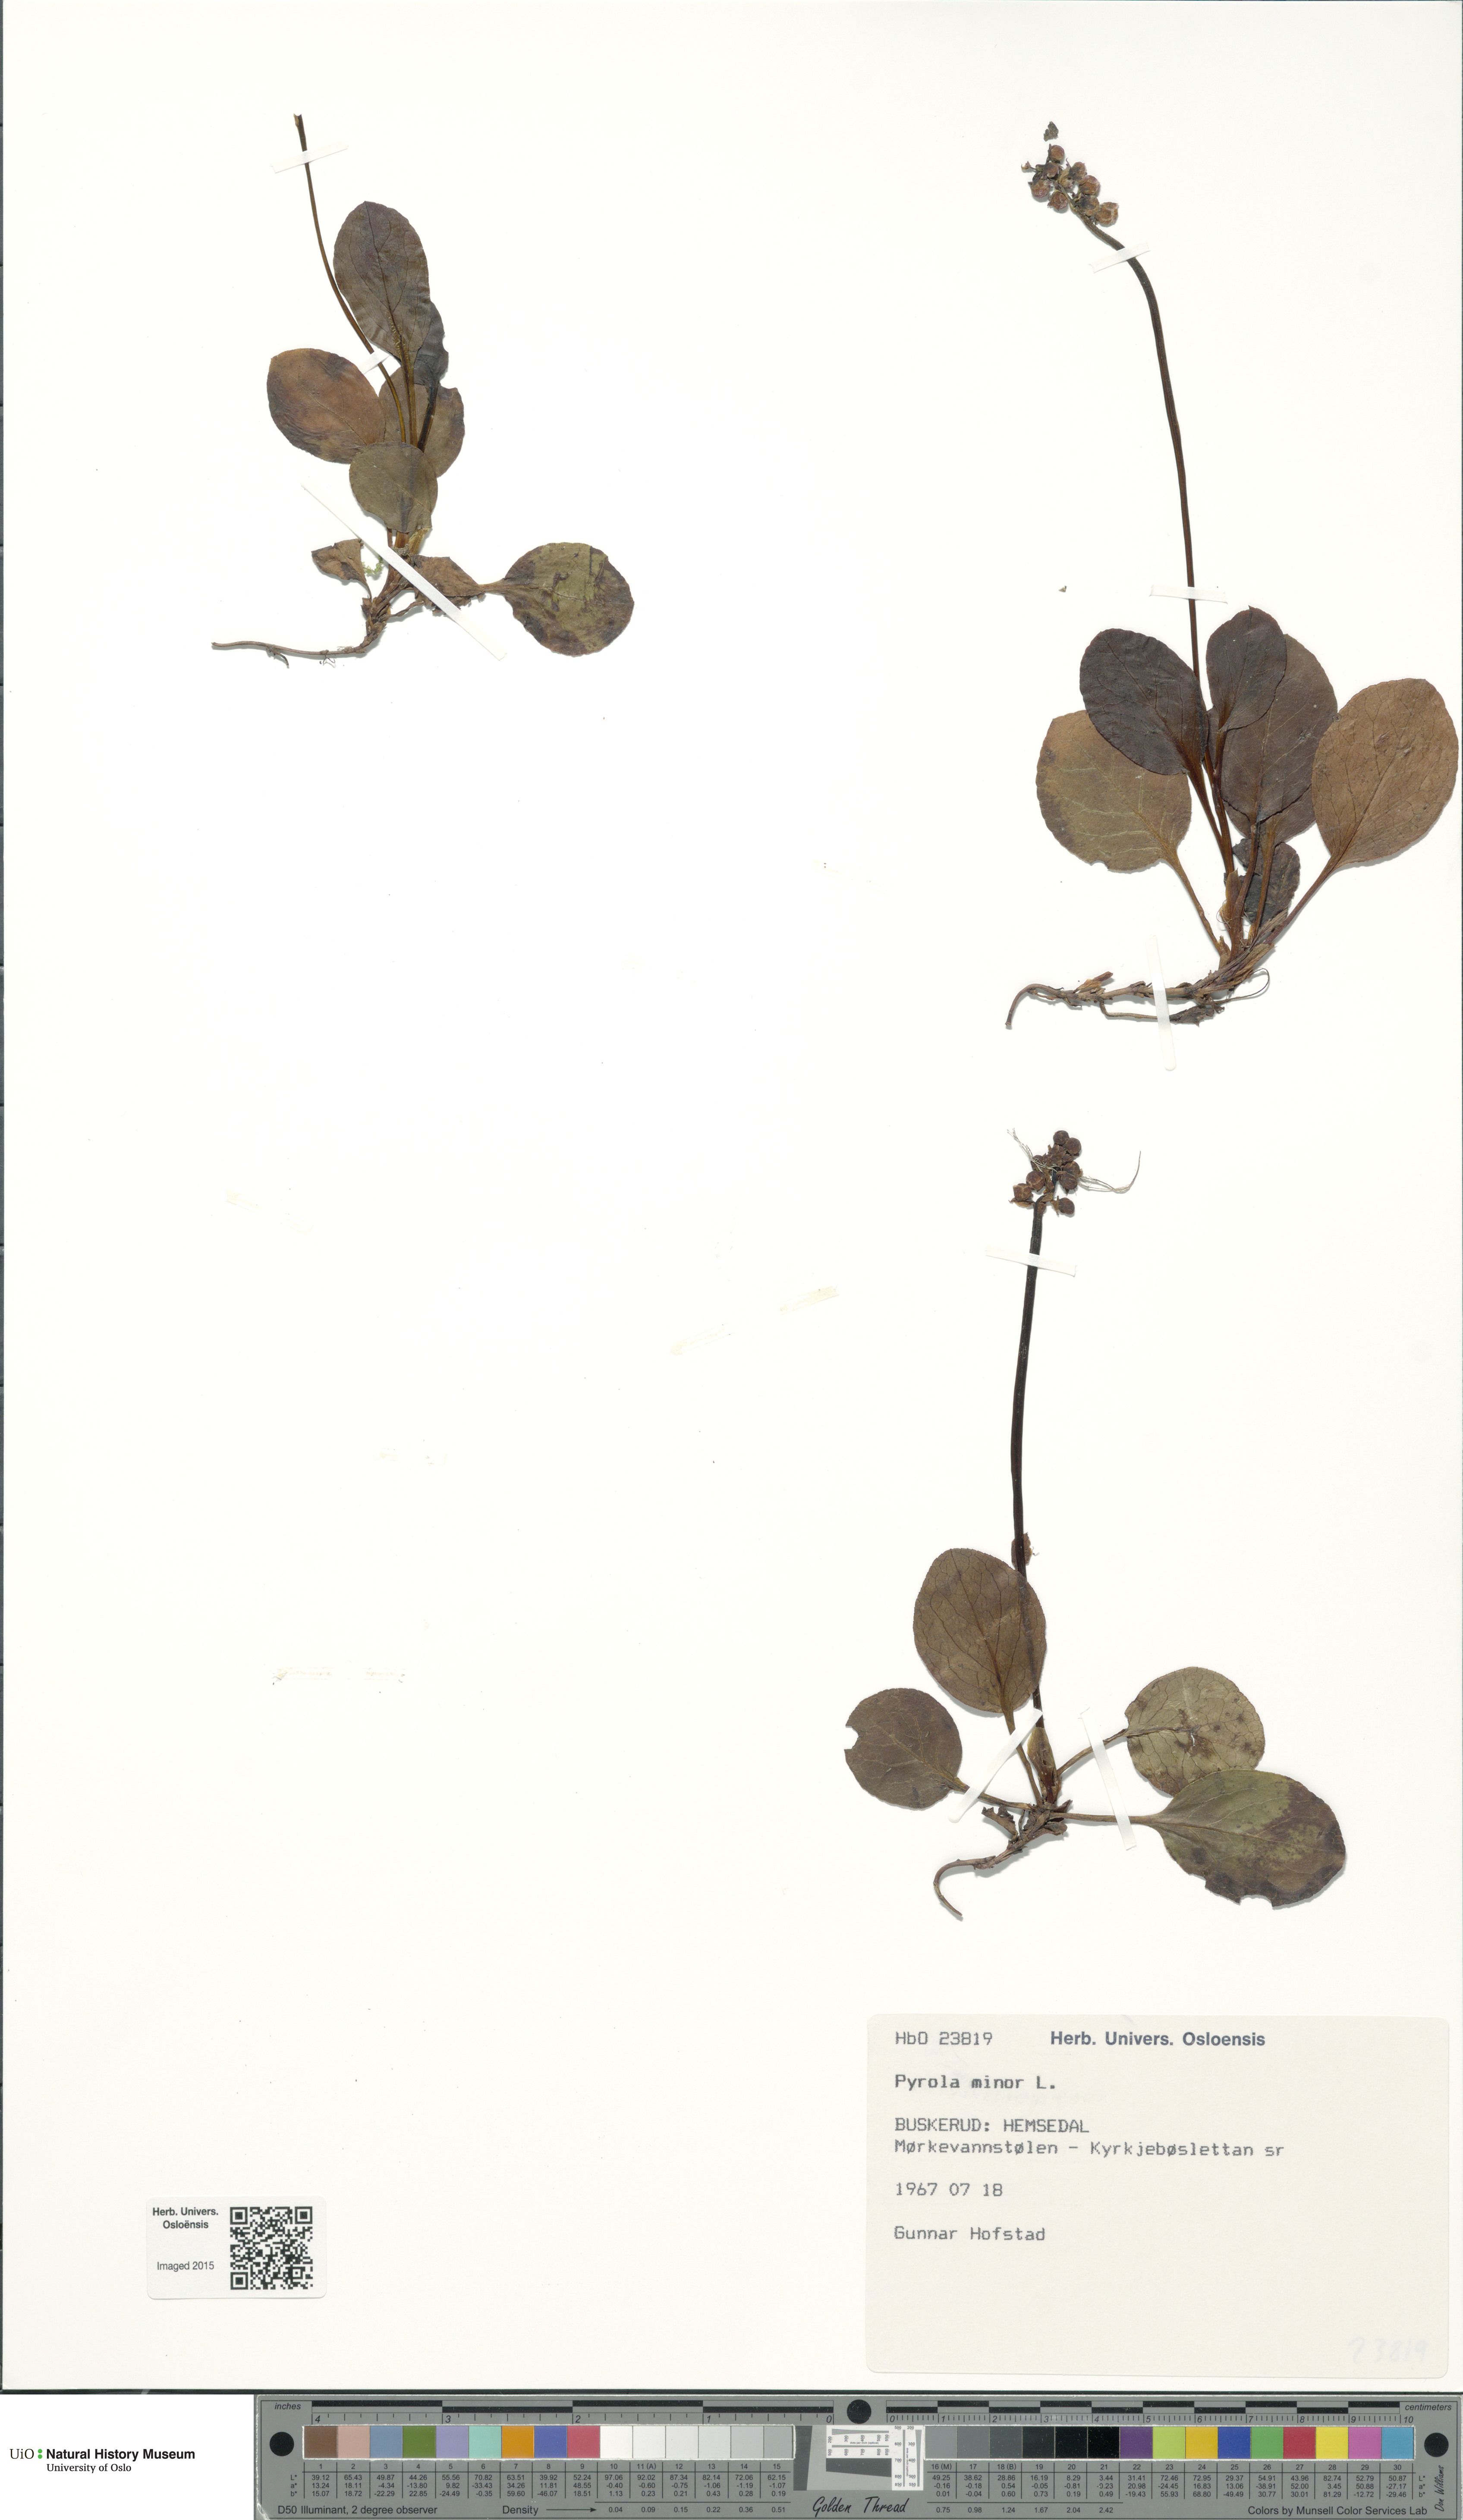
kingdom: Plantae
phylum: Tracheophyta
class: Magnoliopsida
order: Ericales
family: Ericaceae
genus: Pyrola
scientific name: Pyrola minor
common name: Common wintergreen
